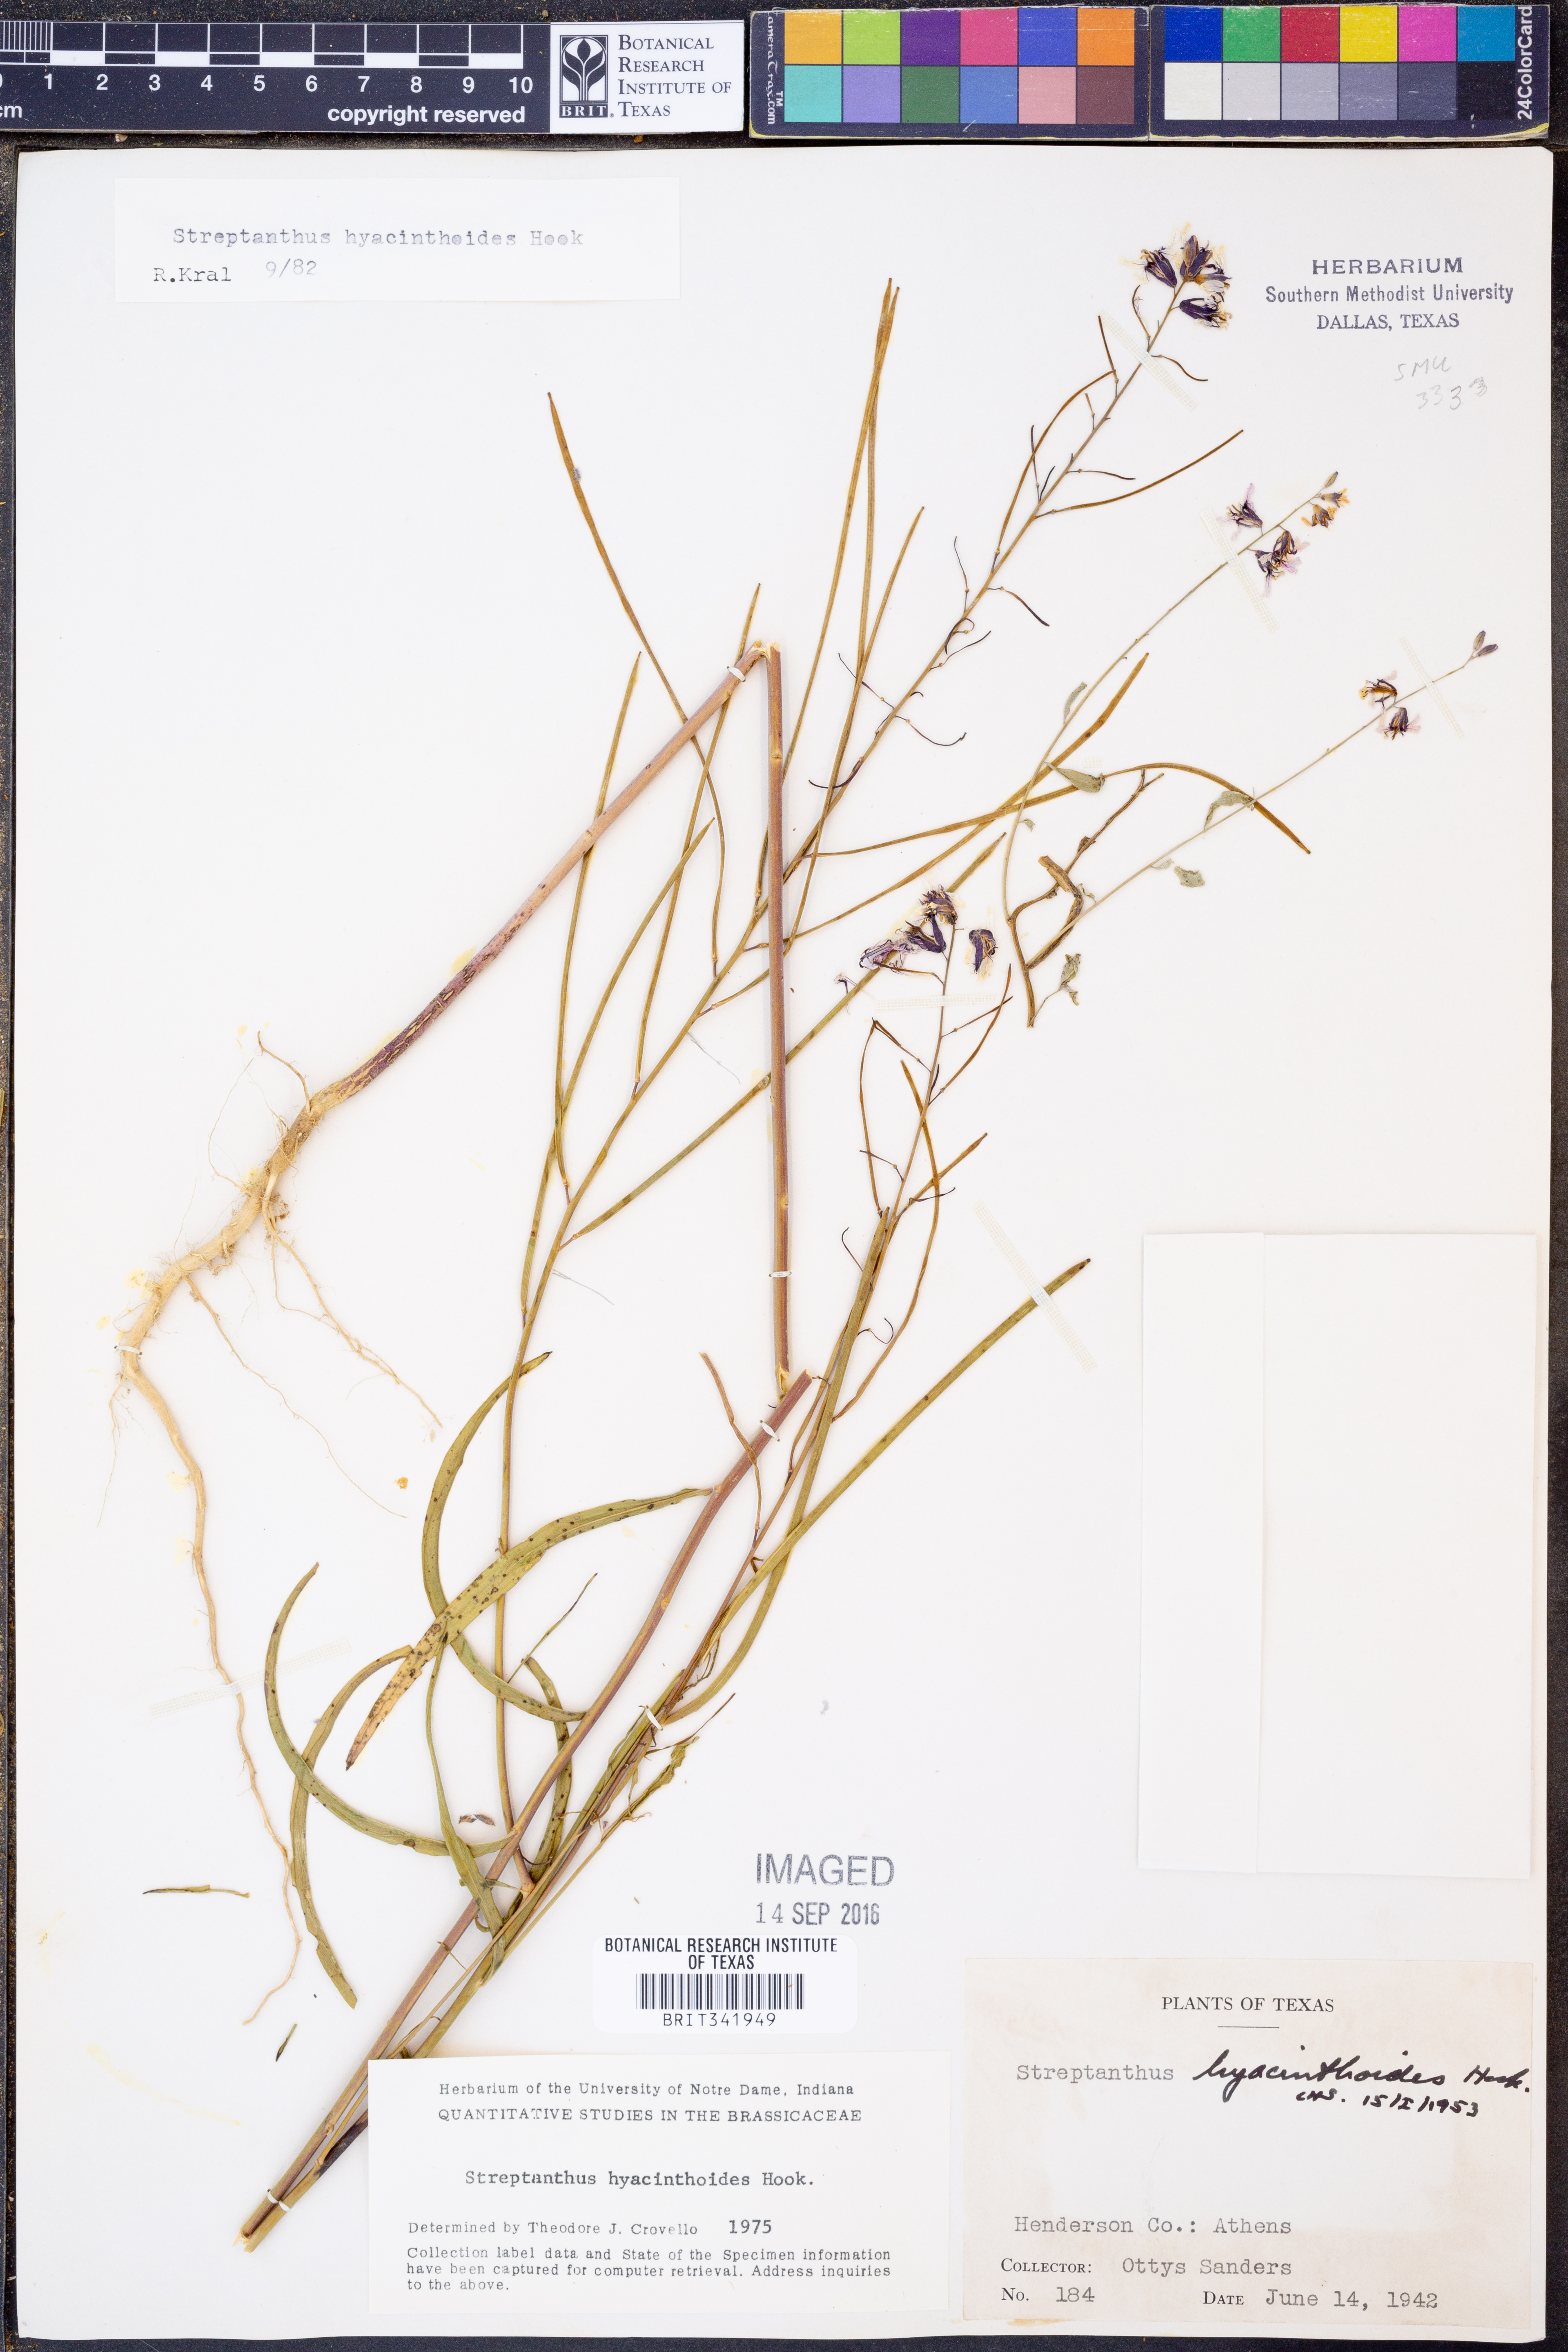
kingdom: Plantae
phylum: Tracheophyta
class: Magnoliopsida
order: Brassicales
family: Brassicaceae
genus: Streptanthus
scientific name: Streptanthus hyacinthoides
